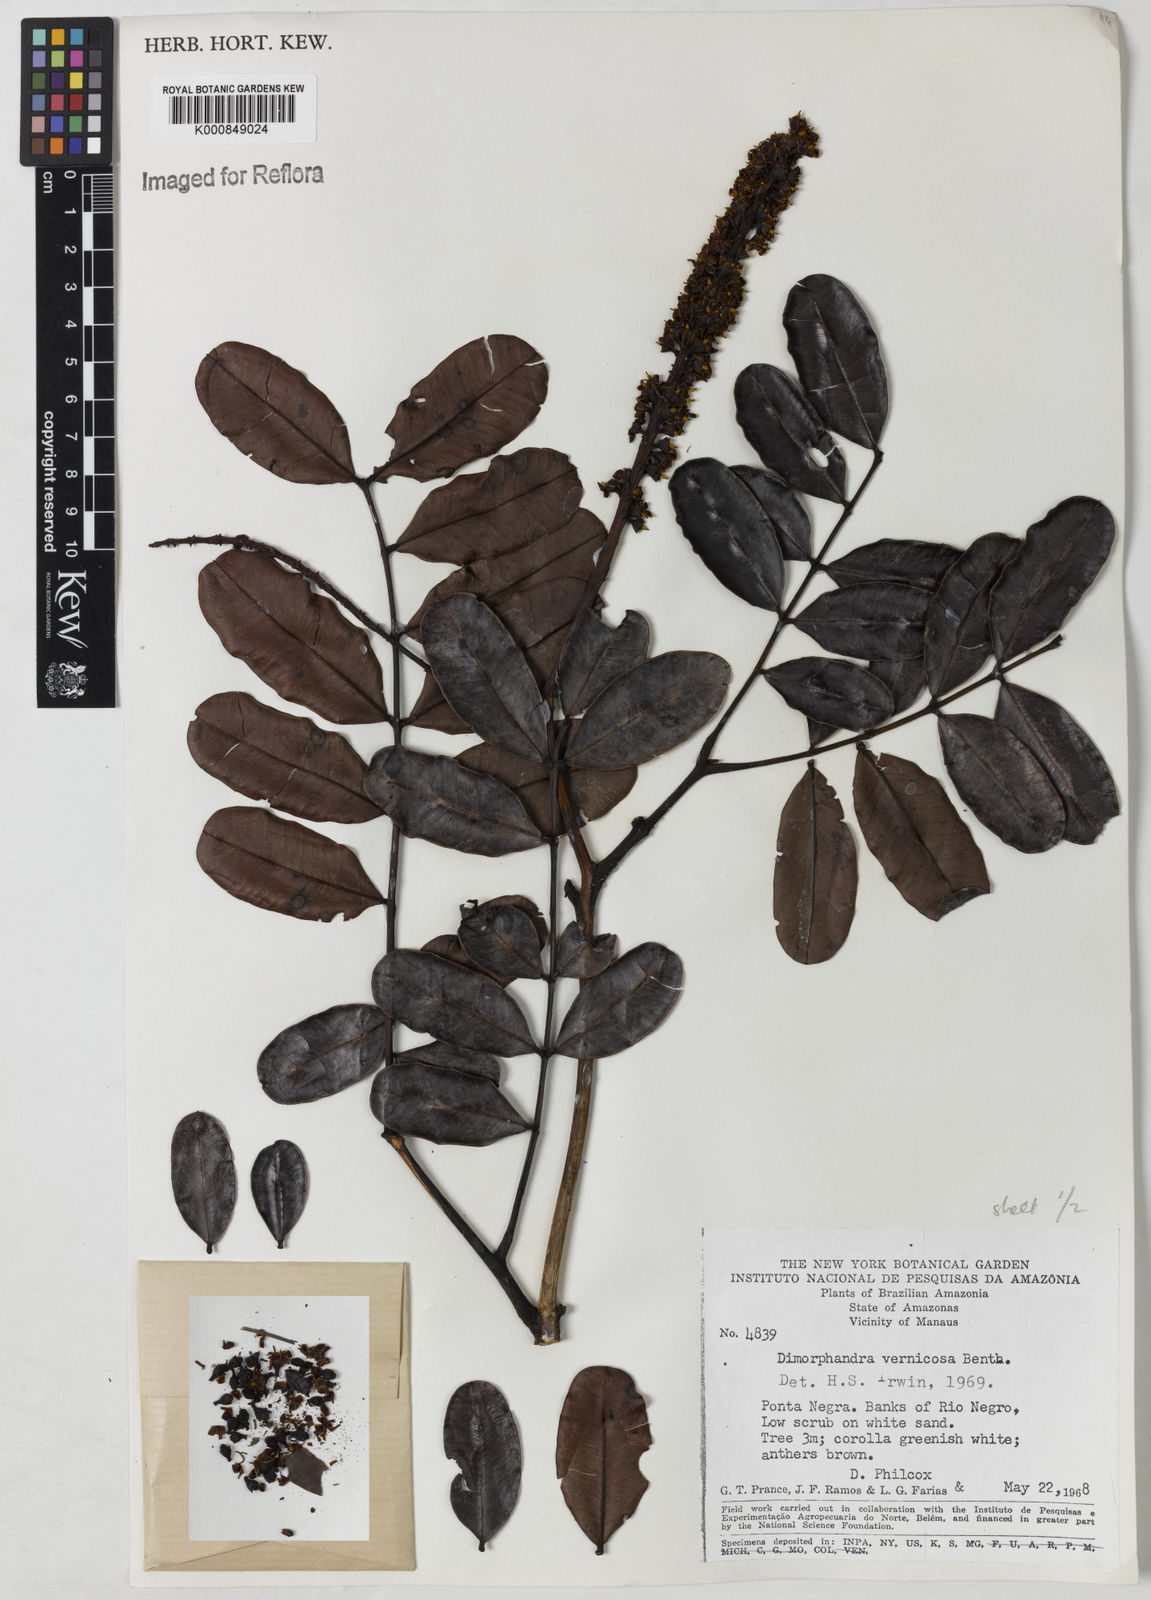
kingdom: Plantae
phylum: Tracheophyta
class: Magnoliopsida
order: Fabales
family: Fabaceae
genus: Dimorphandra
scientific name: Dimorphandra vernicosa
